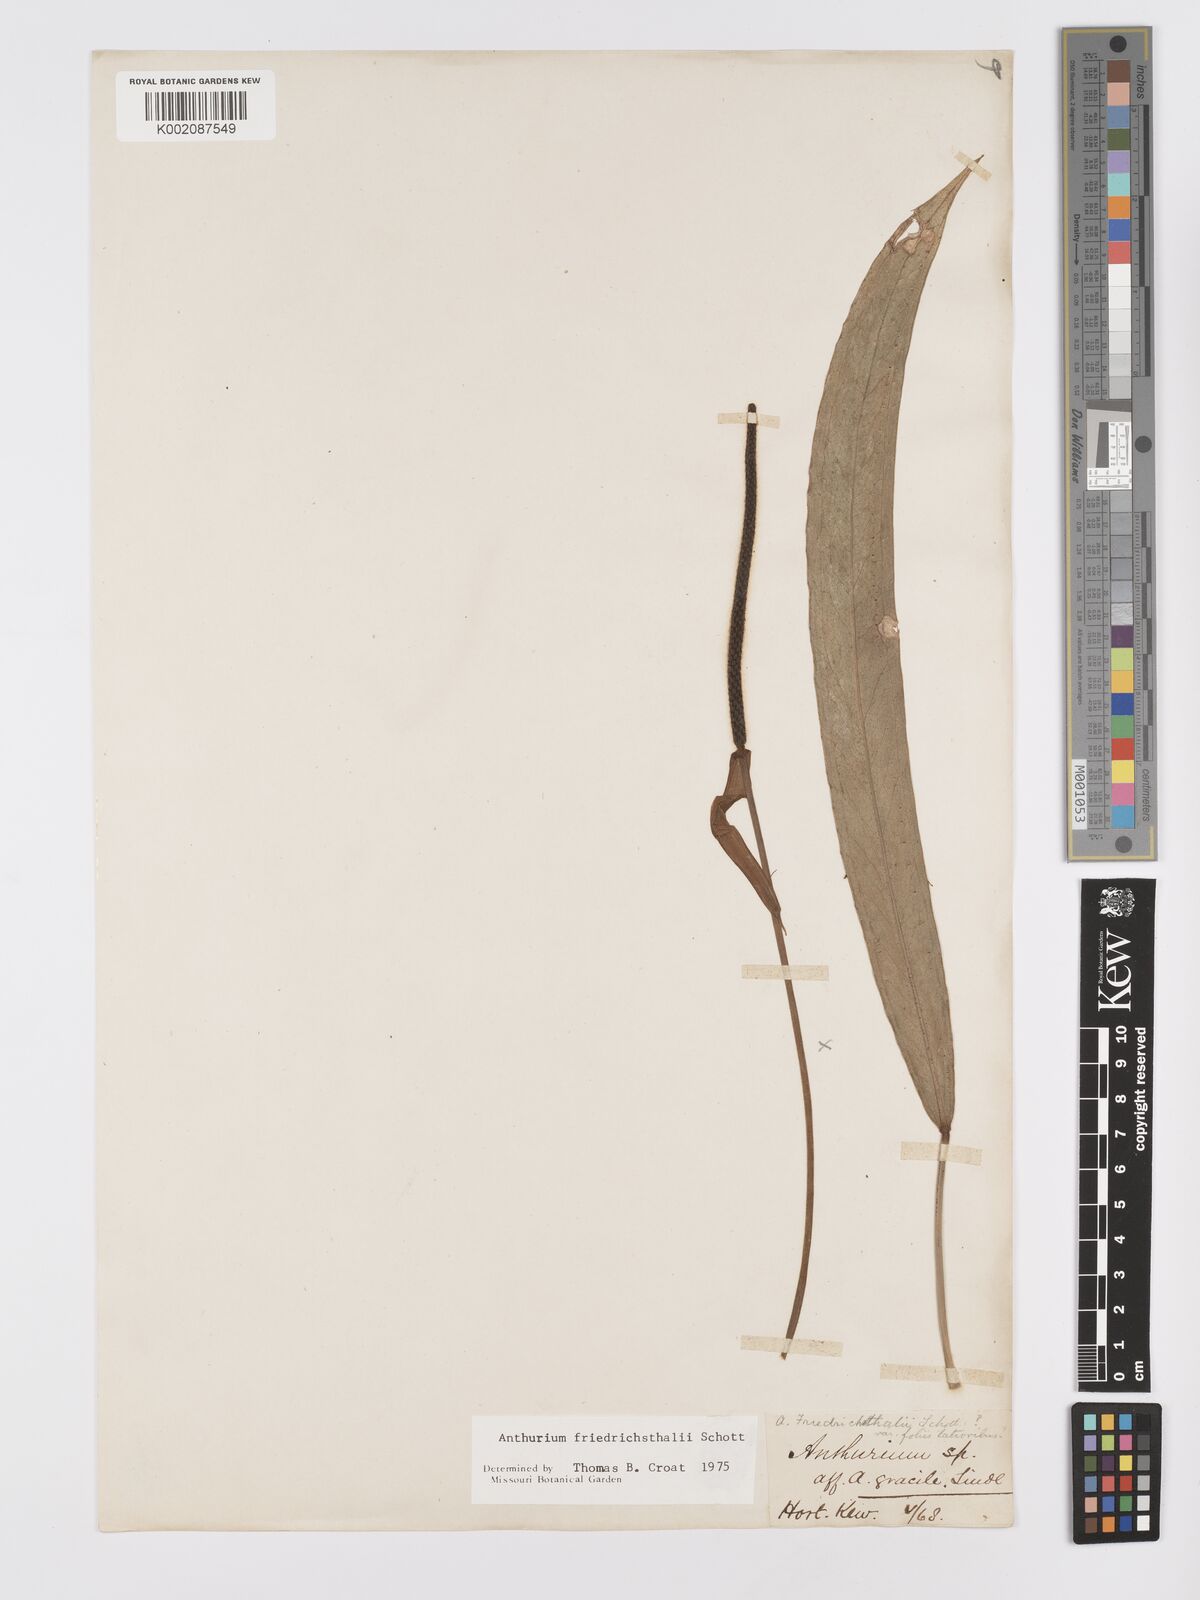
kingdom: Plantae
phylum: Tracheophyta
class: Liliopsida
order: Alismatales
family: Araceae
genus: Anthurium
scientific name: Anthurium friedrichsthalii
